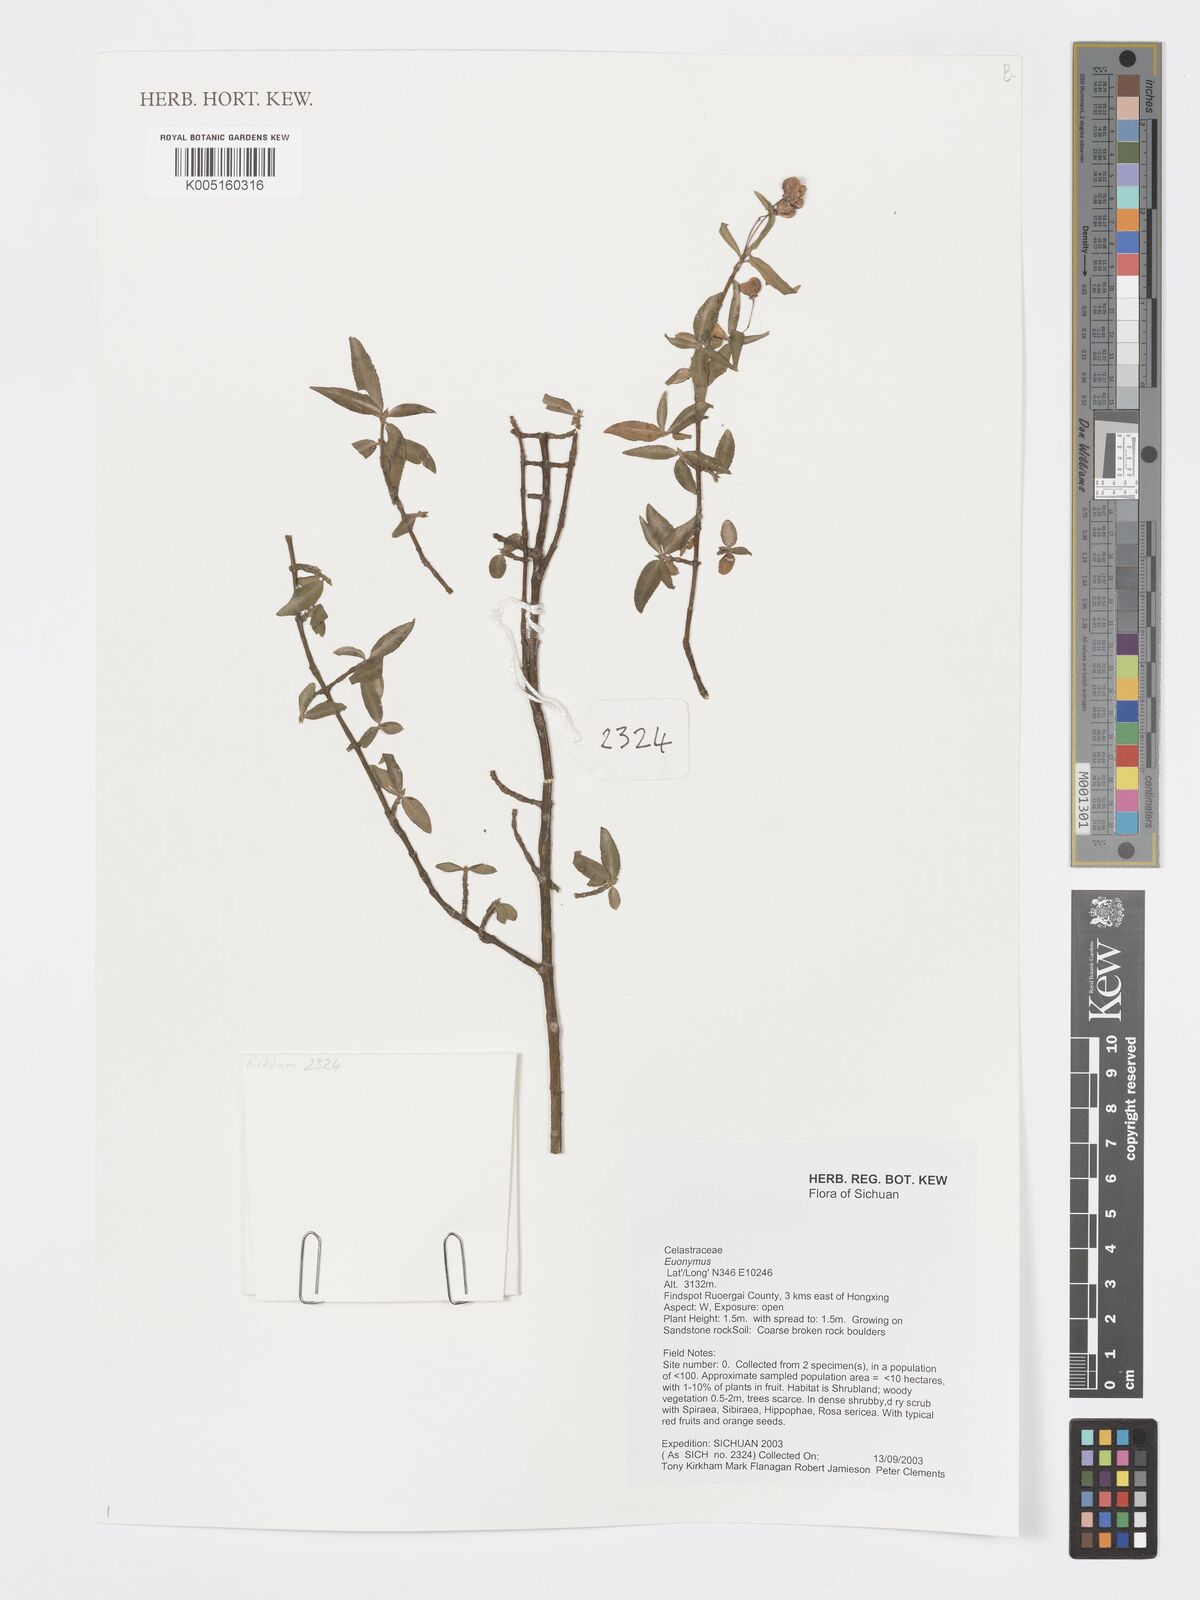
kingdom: Plantae
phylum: Tracheophyta
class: Magnoliopsida
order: Celastrales
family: Celastraceae
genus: Euonymus
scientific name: Euonymus
